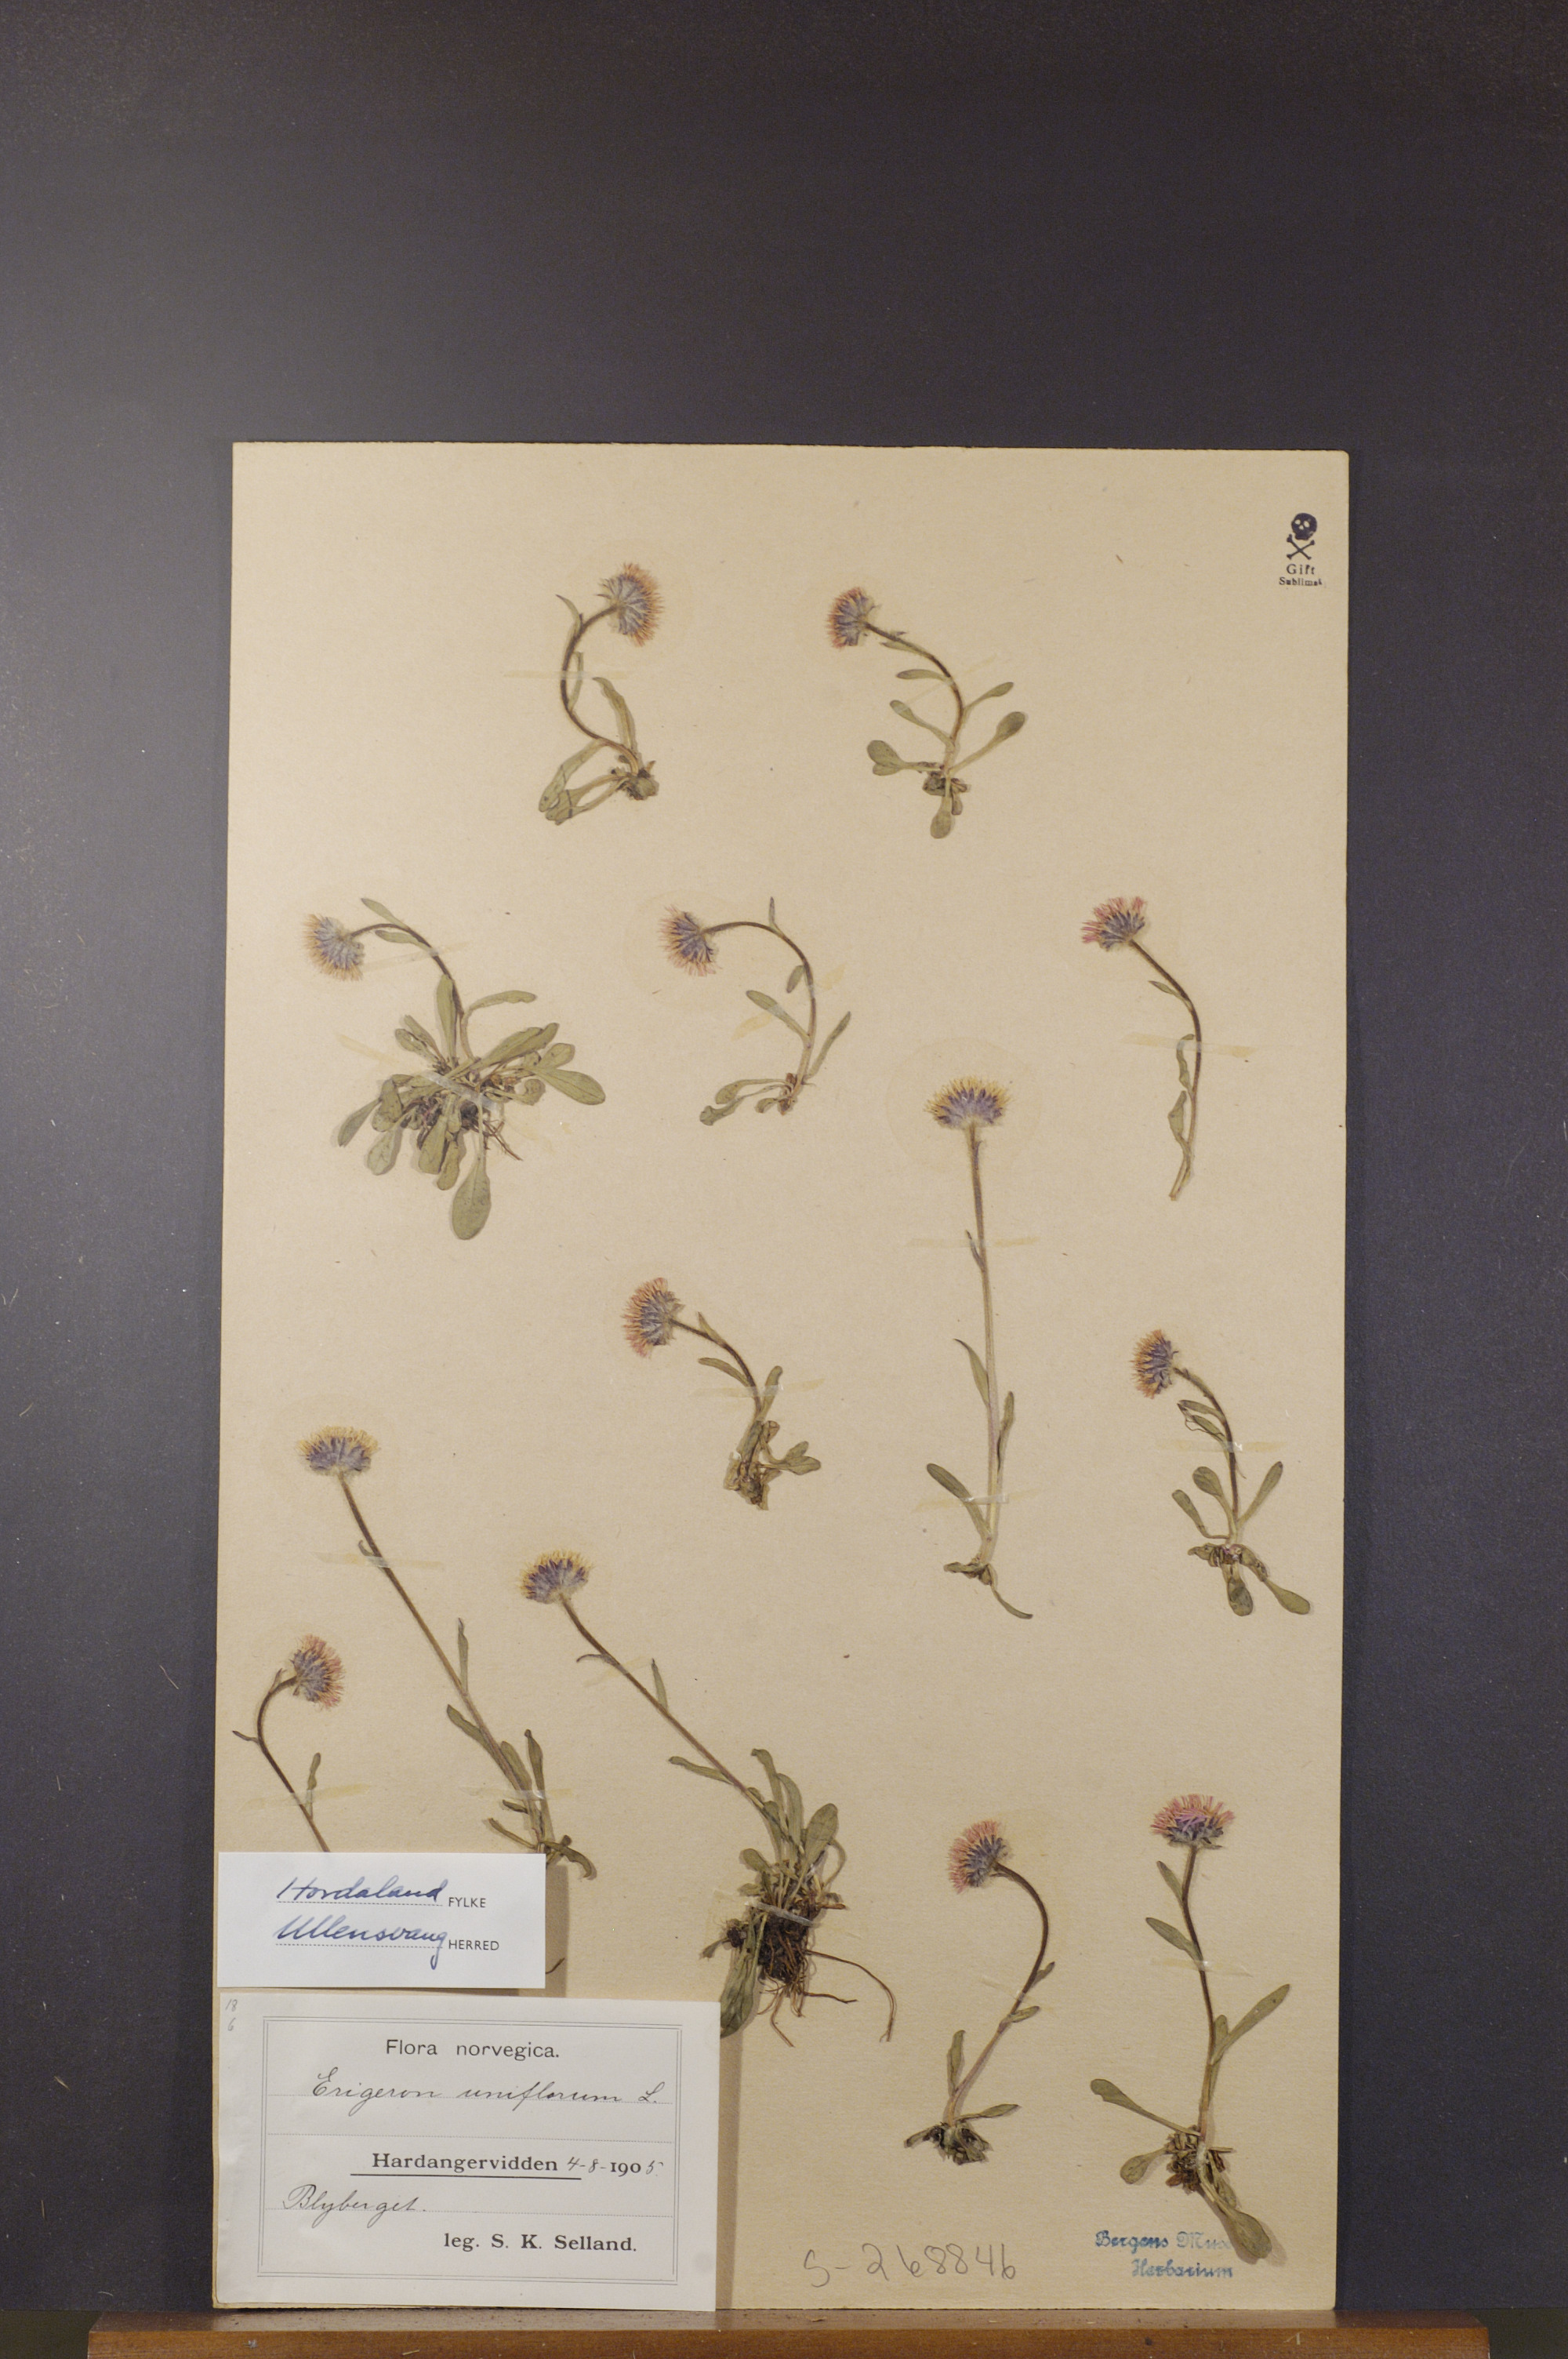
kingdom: Plantae
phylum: Tracheophyta
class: Magnoliopsida
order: Asterales
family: Asteraceae
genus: Erigeron
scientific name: Erigeron uniflorus
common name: Northern daisy
